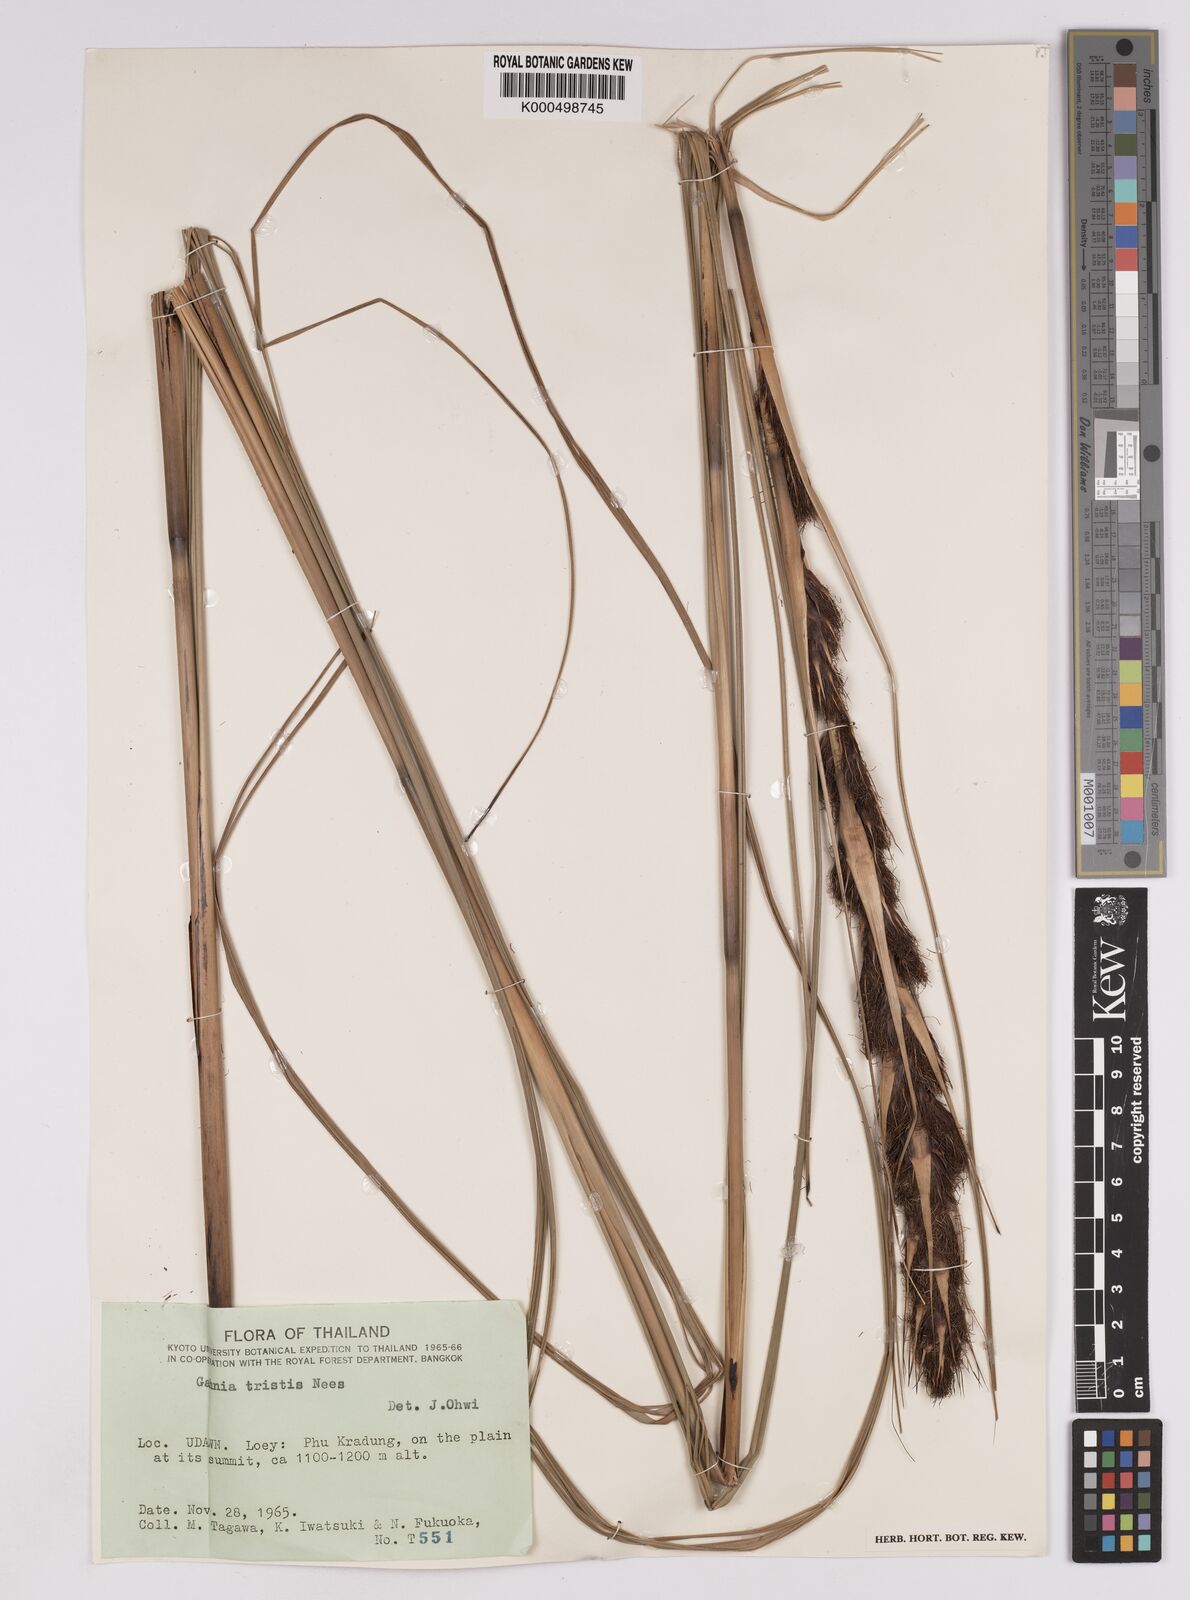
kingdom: Plantae
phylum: Tracheophyta
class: Liliopsida
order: Poales
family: Cyperaceae
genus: Gahnia
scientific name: Gahnia tristis
